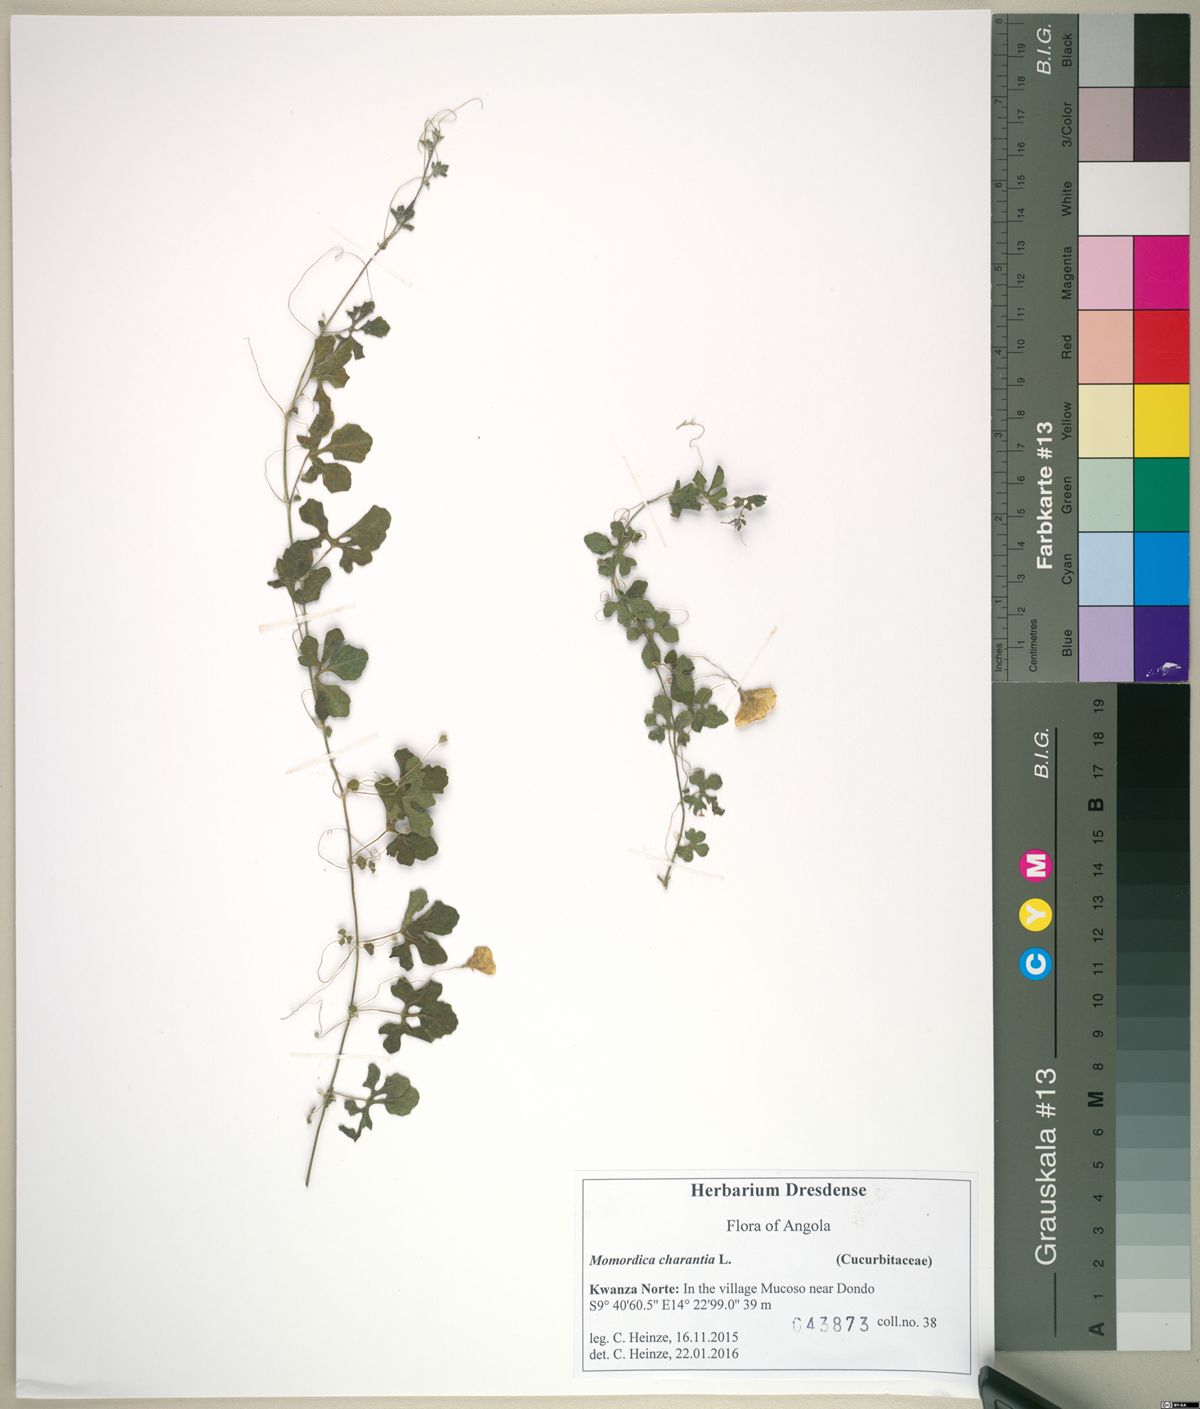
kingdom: Plantae
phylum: Tracheophyta
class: Magnoliopsida
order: Cucurbitales
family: Cucurbitaceae
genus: Momordica
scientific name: Momordica charantia
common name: Balsampear
